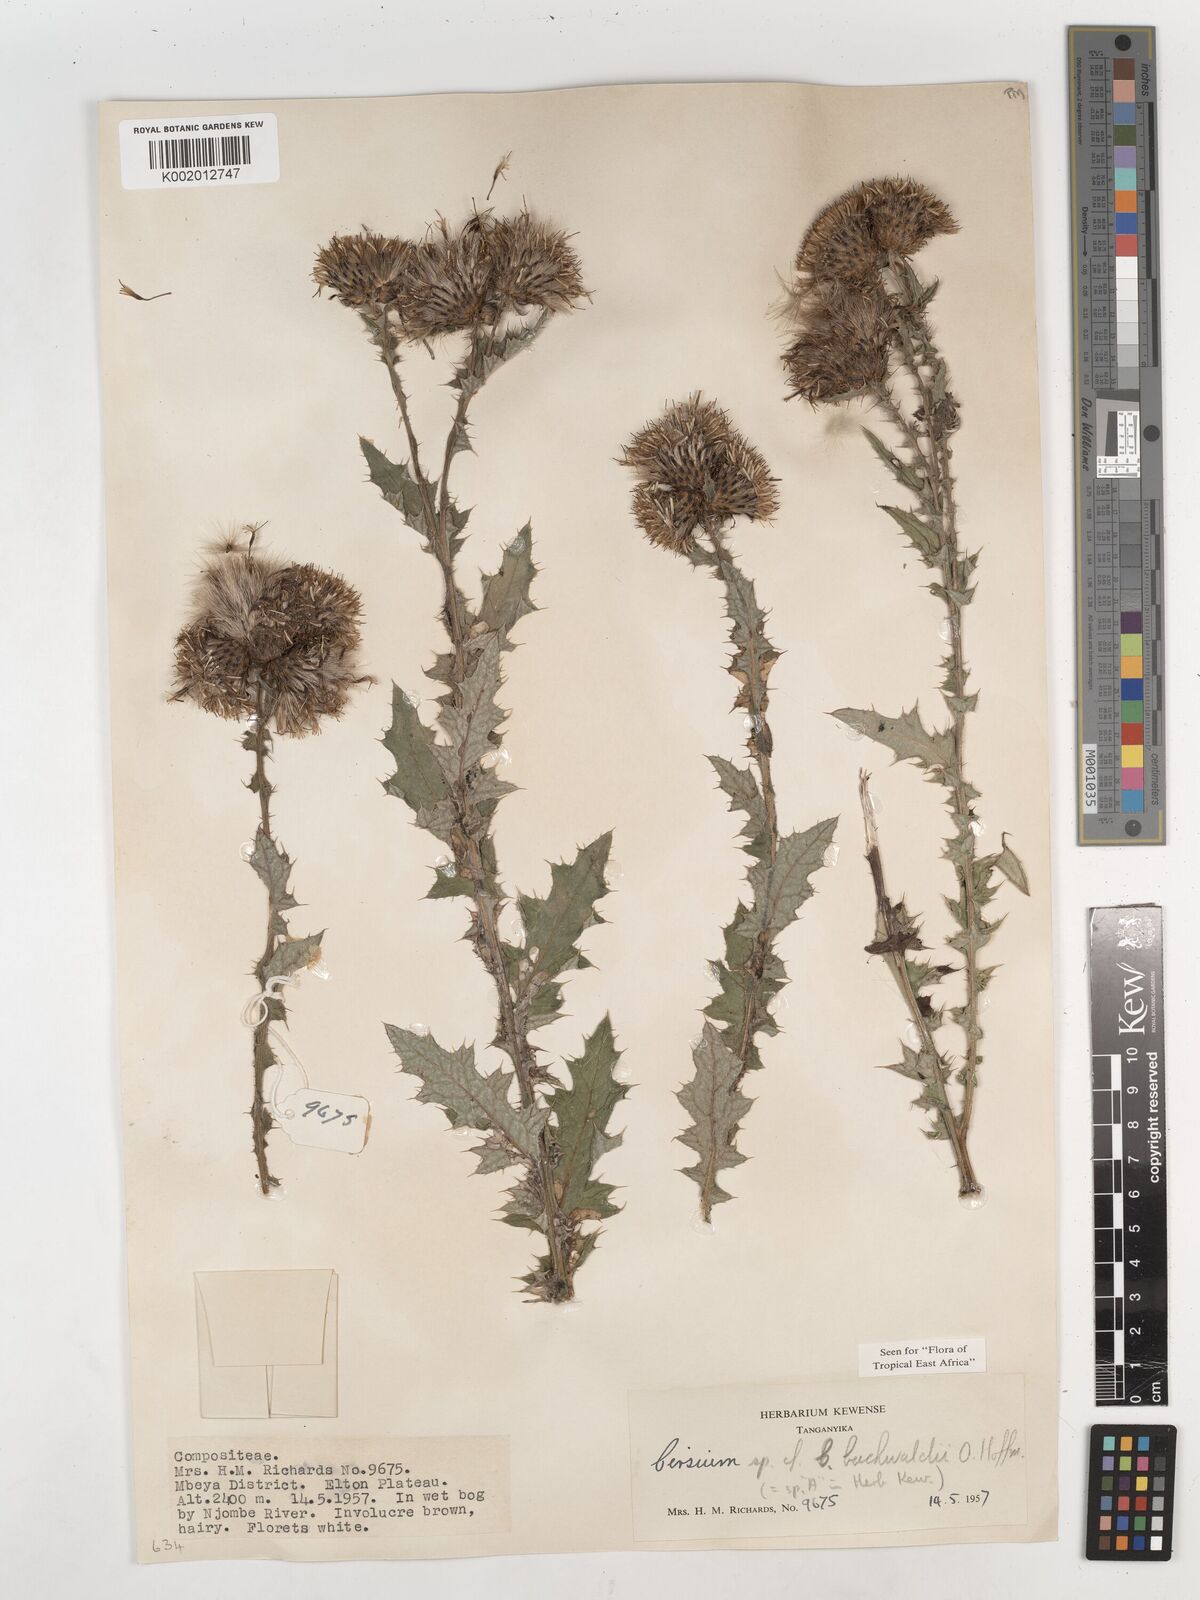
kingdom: Plantae
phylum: Tracheophyta
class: Magnoliopsida
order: Asterales
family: Asteraceae
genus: Cirsium
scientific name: Cirsium buchwaldii
